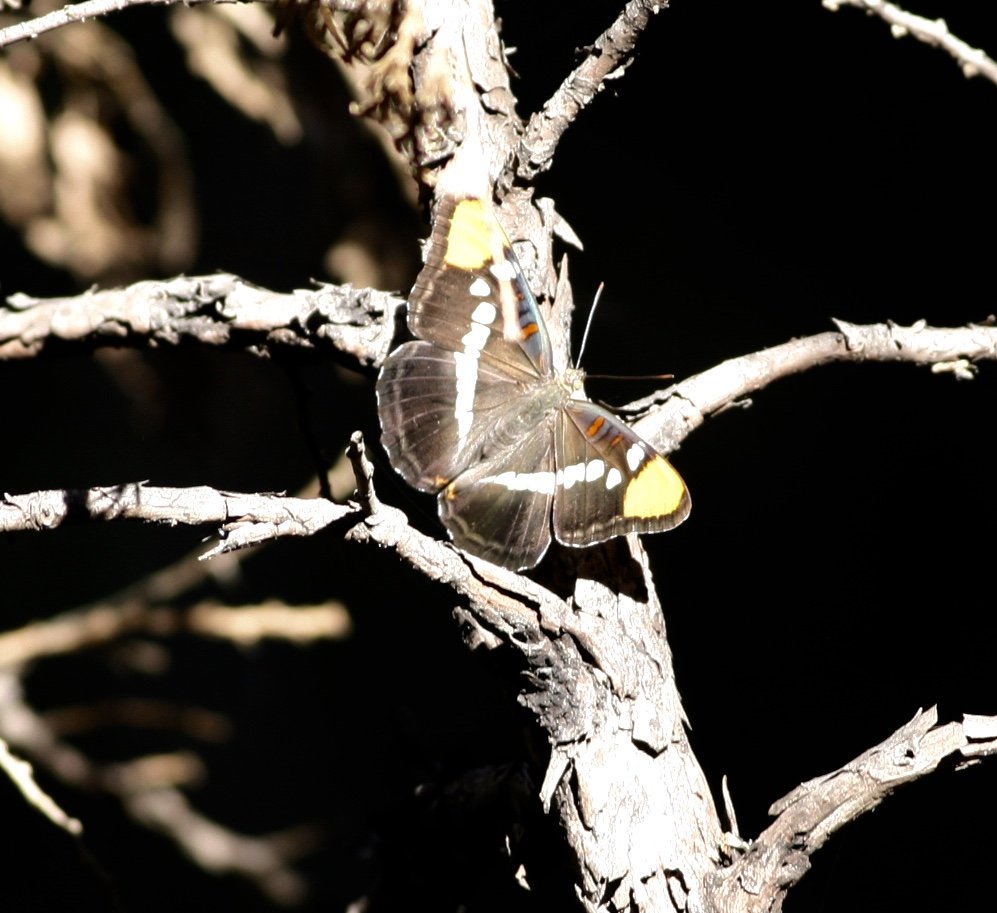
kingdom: Animalia
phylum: Arthropoda
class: Insecta
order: Lepidoptera
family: Nymphalidae
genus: Limenitis
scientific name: Limenitis bredowii
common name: California Sister
